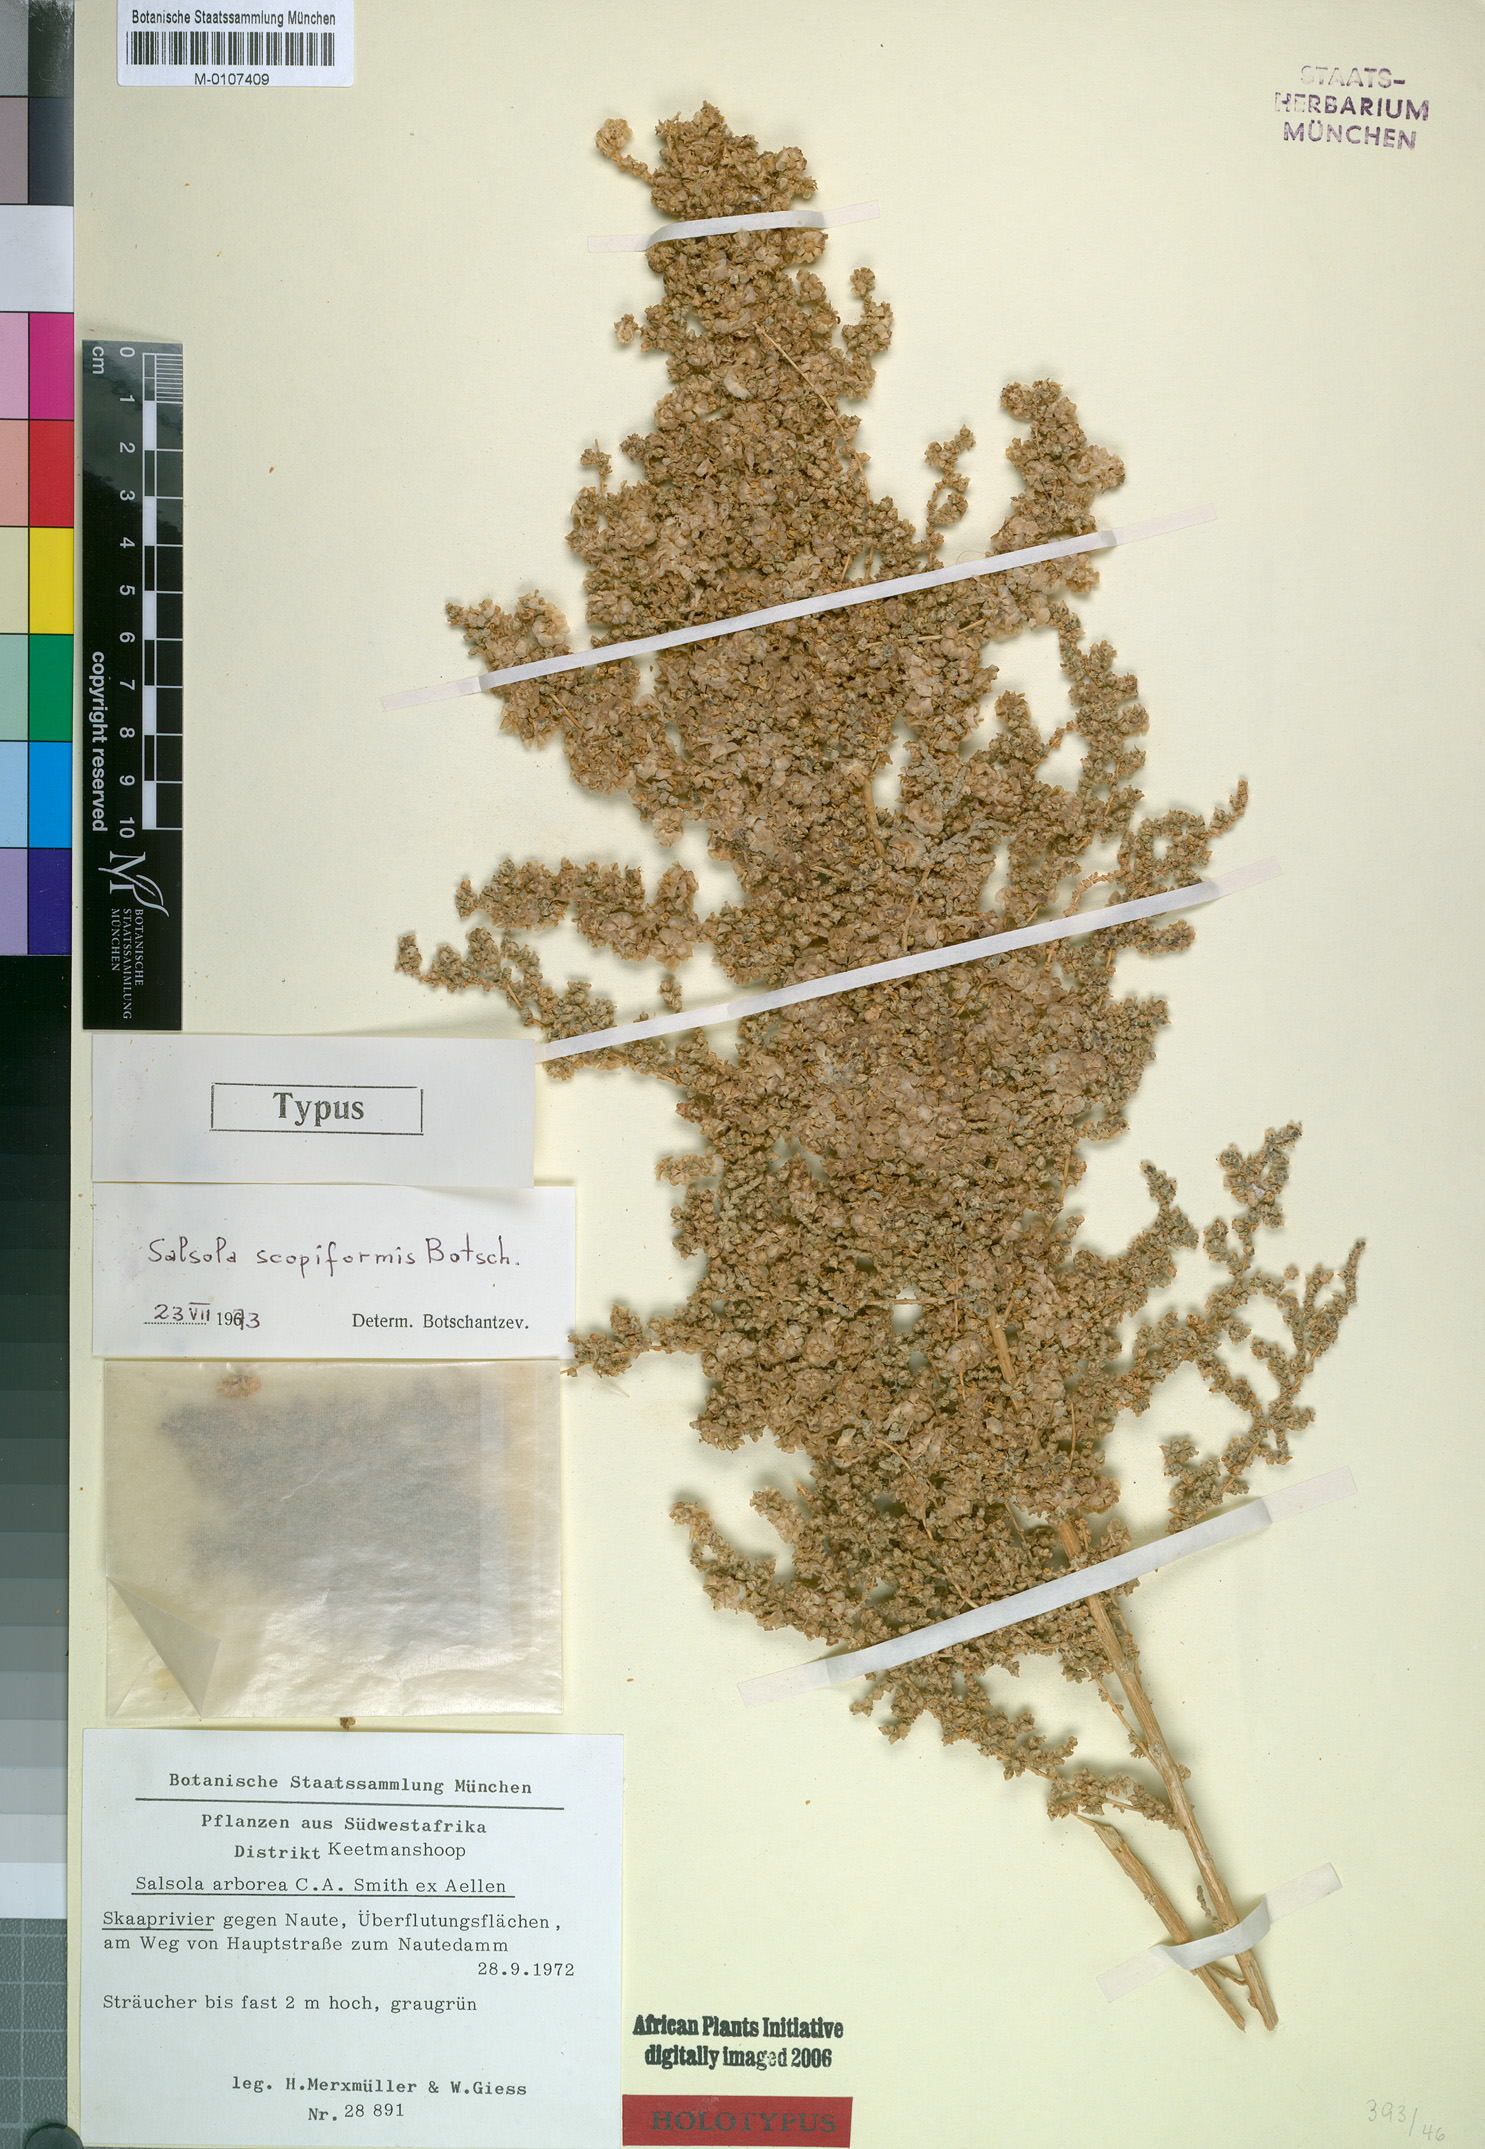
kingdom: Plantae
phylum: Tracheophyta
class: Magnoliopsida
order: Caryophyllales
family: Amaranthaceae
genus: Caroxylon
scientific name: Caroxylon scopiforme
